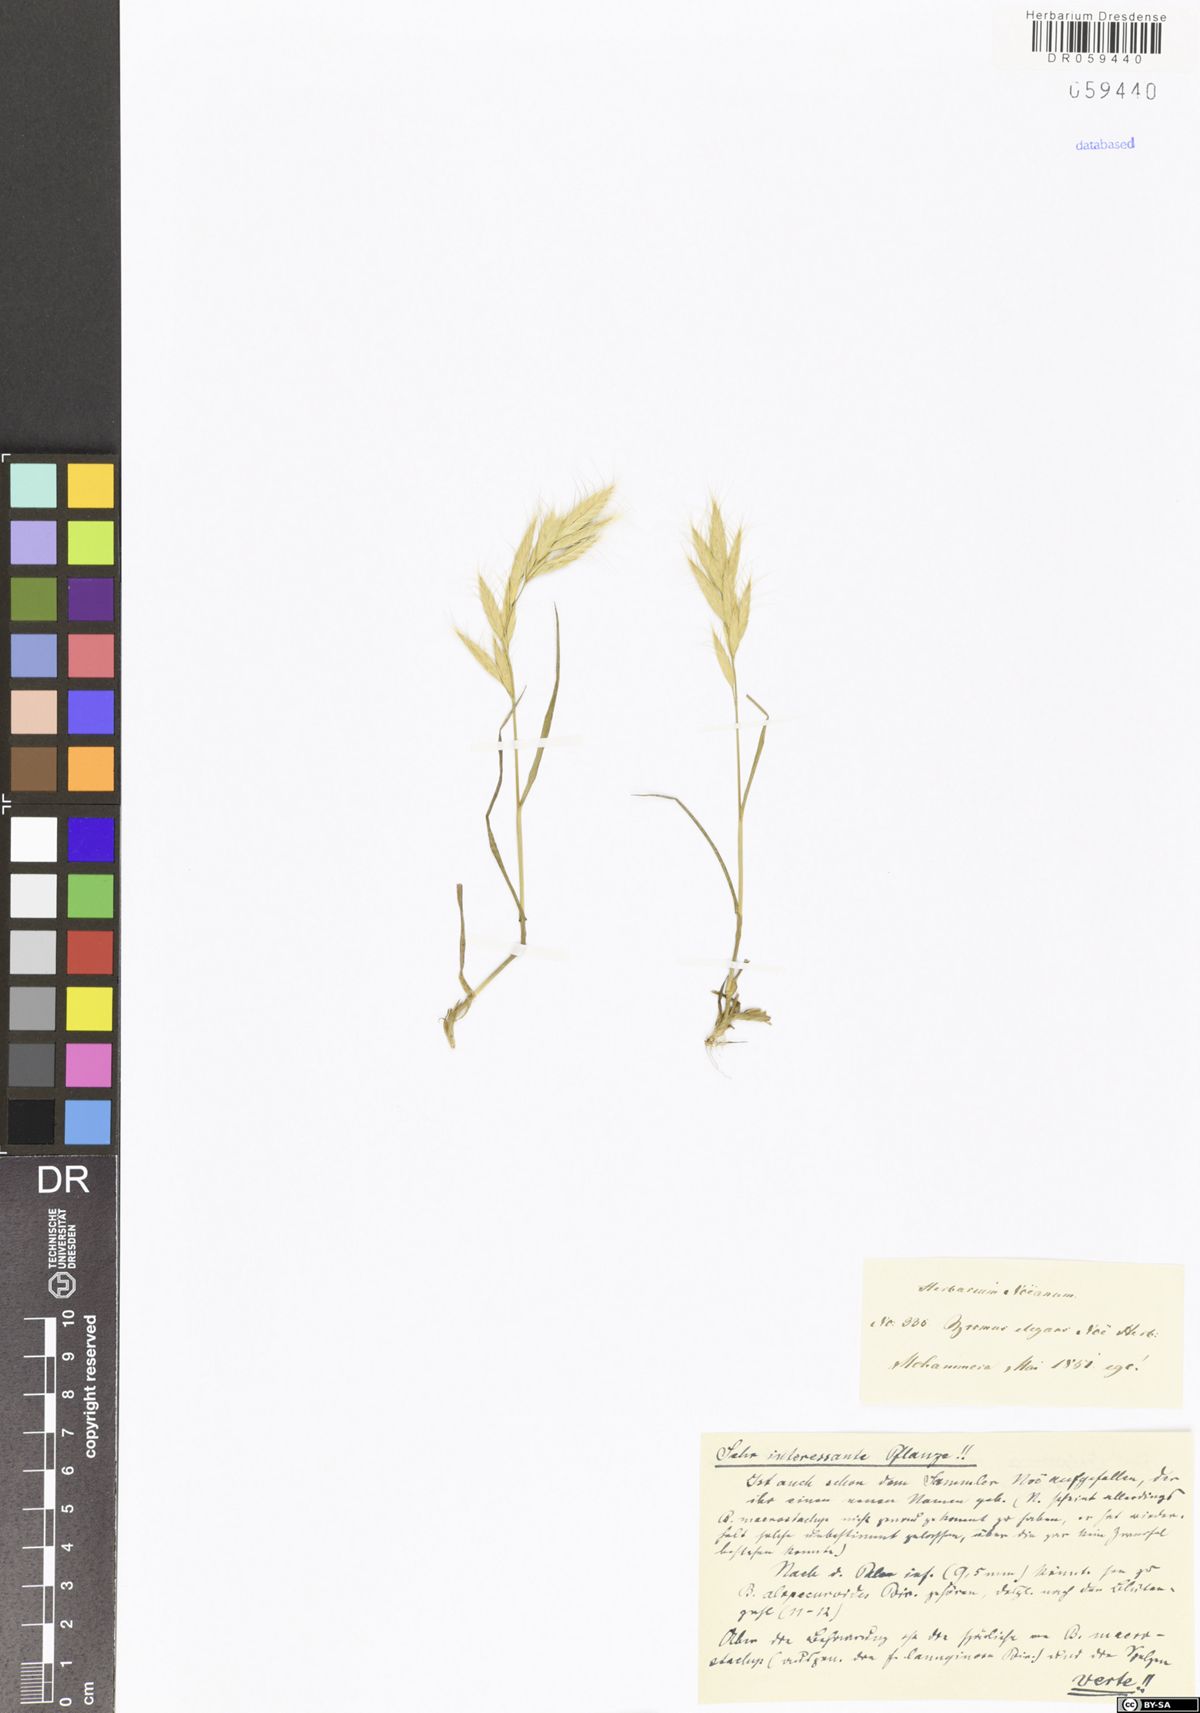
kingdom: Plantae
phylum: Tracheophyta
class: Liliopsida
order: Poales
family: Poaceae
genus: Bromus
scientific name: Bromus
